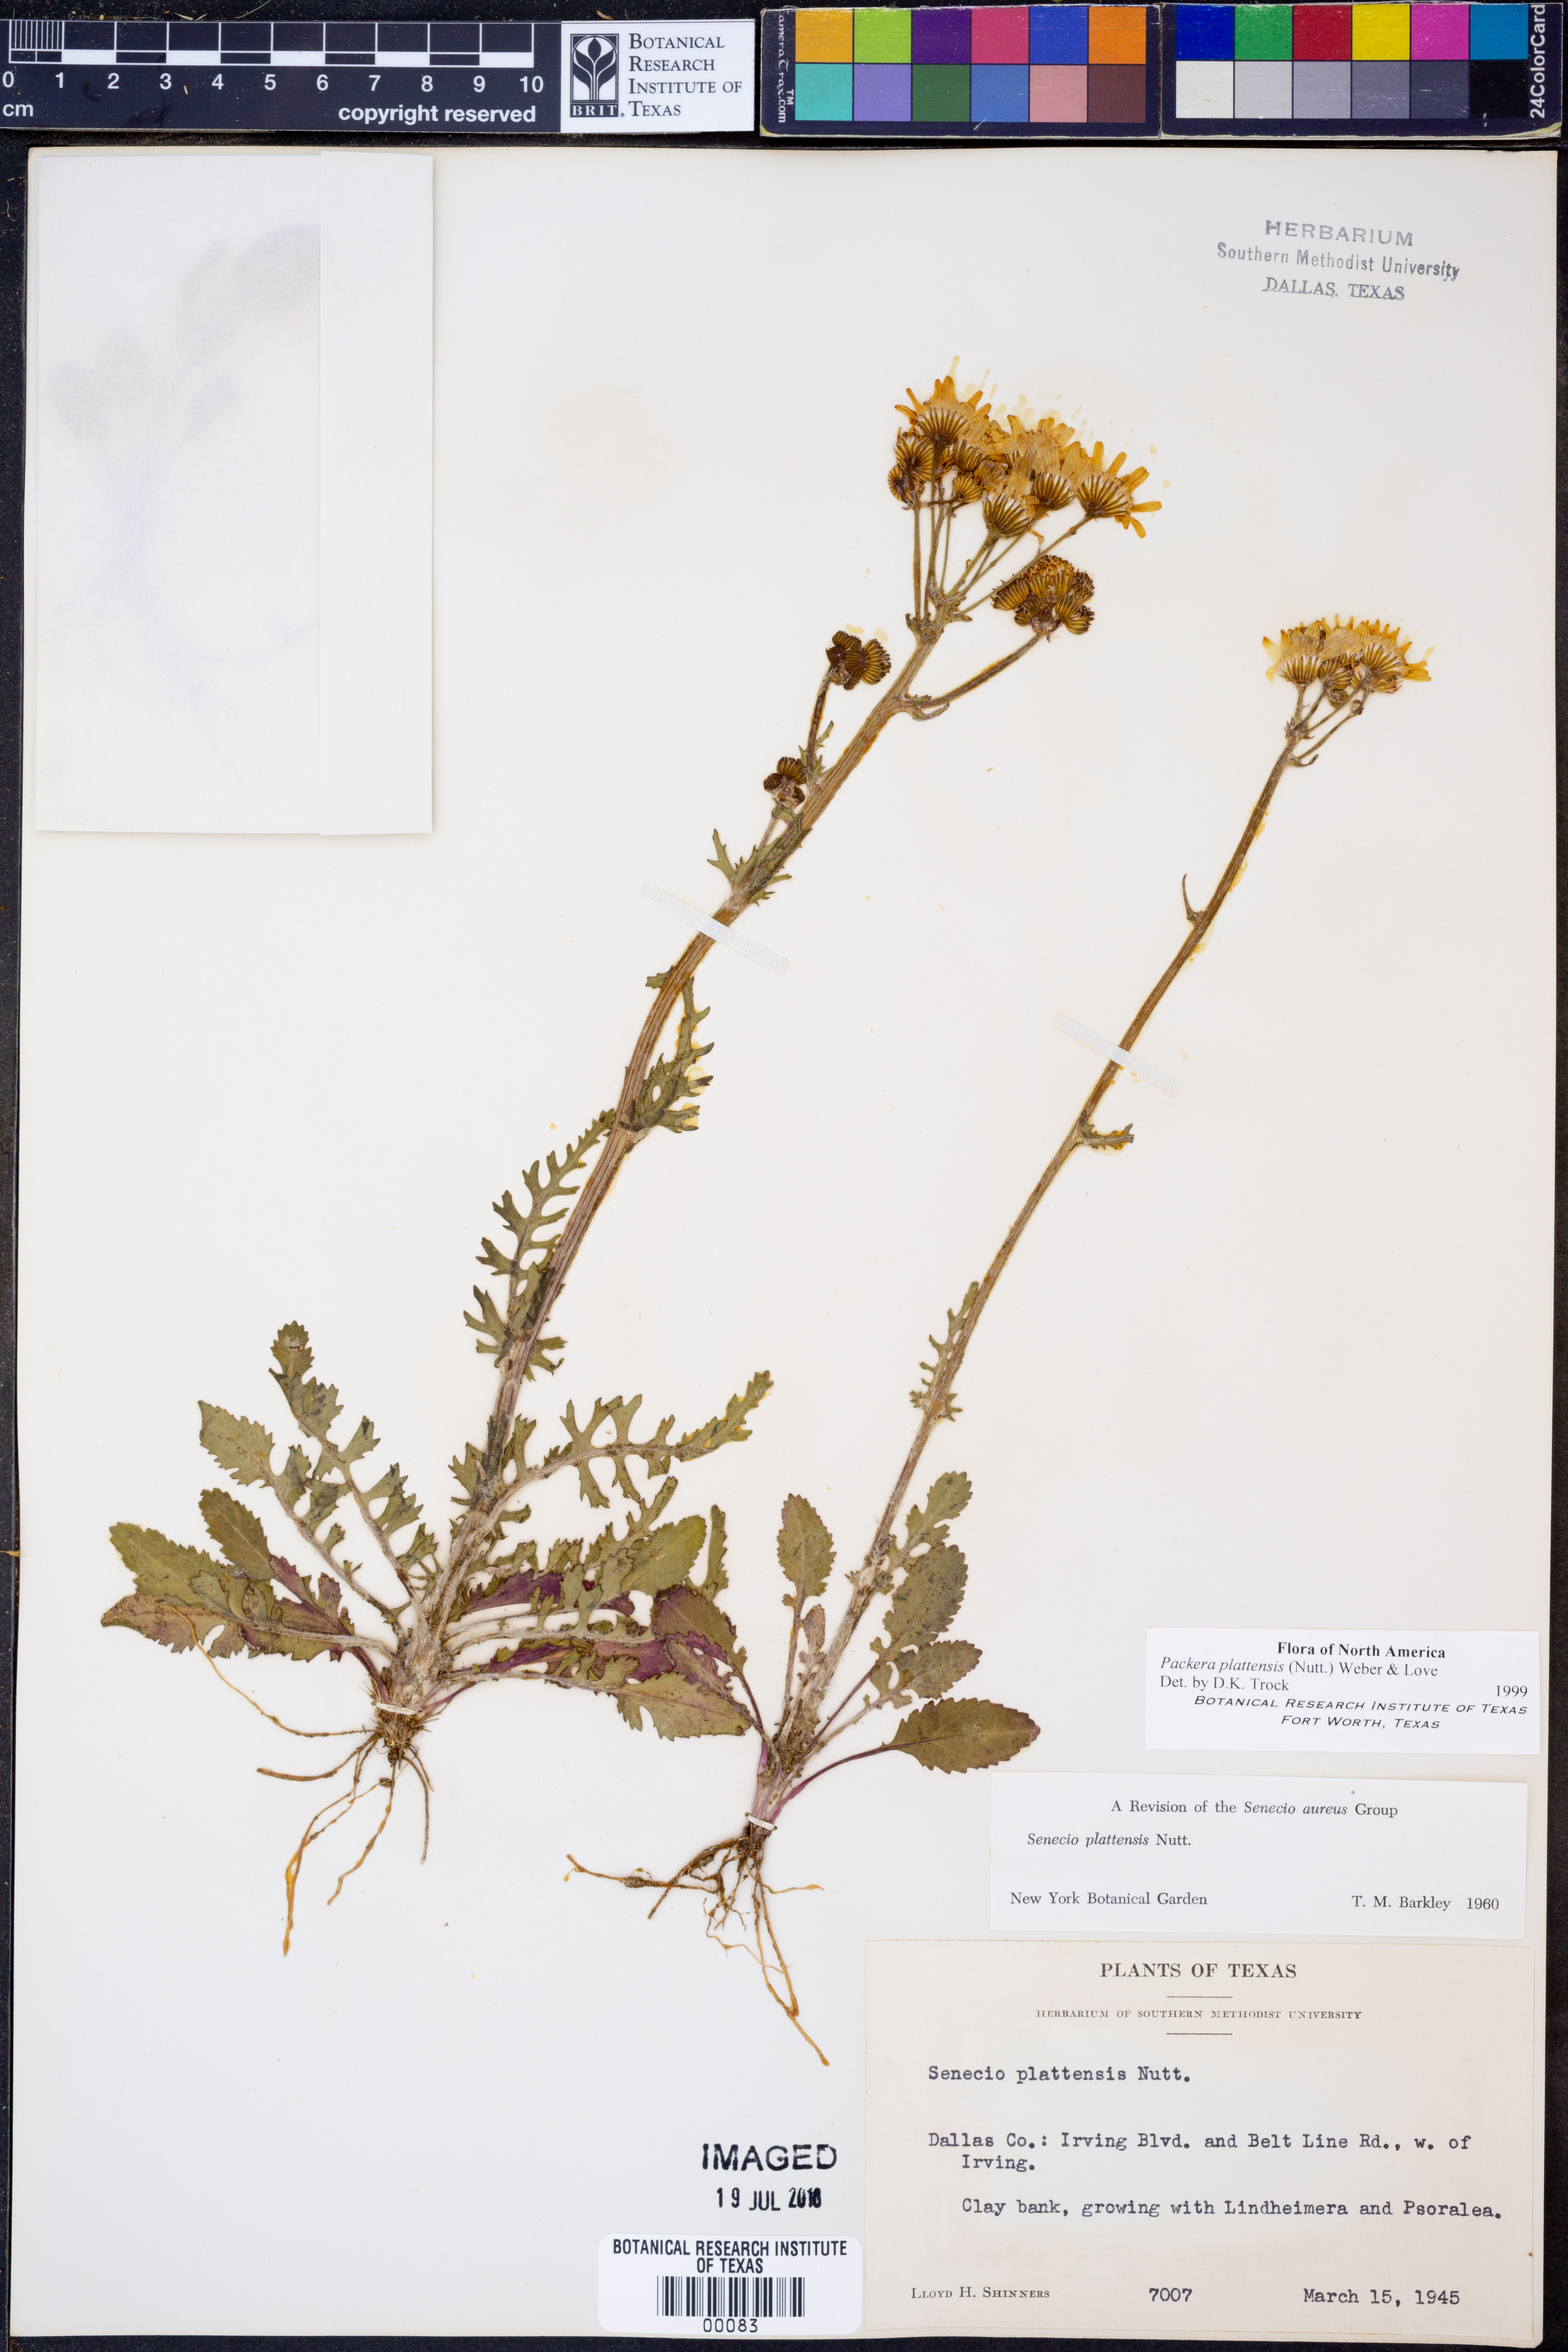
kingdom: Plantae
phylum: Tracheophyta
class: Magnoliopsida
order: Asterales
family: Asteraceae
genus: Packera
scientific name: Packera plattensis
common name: Prairie groundsel
